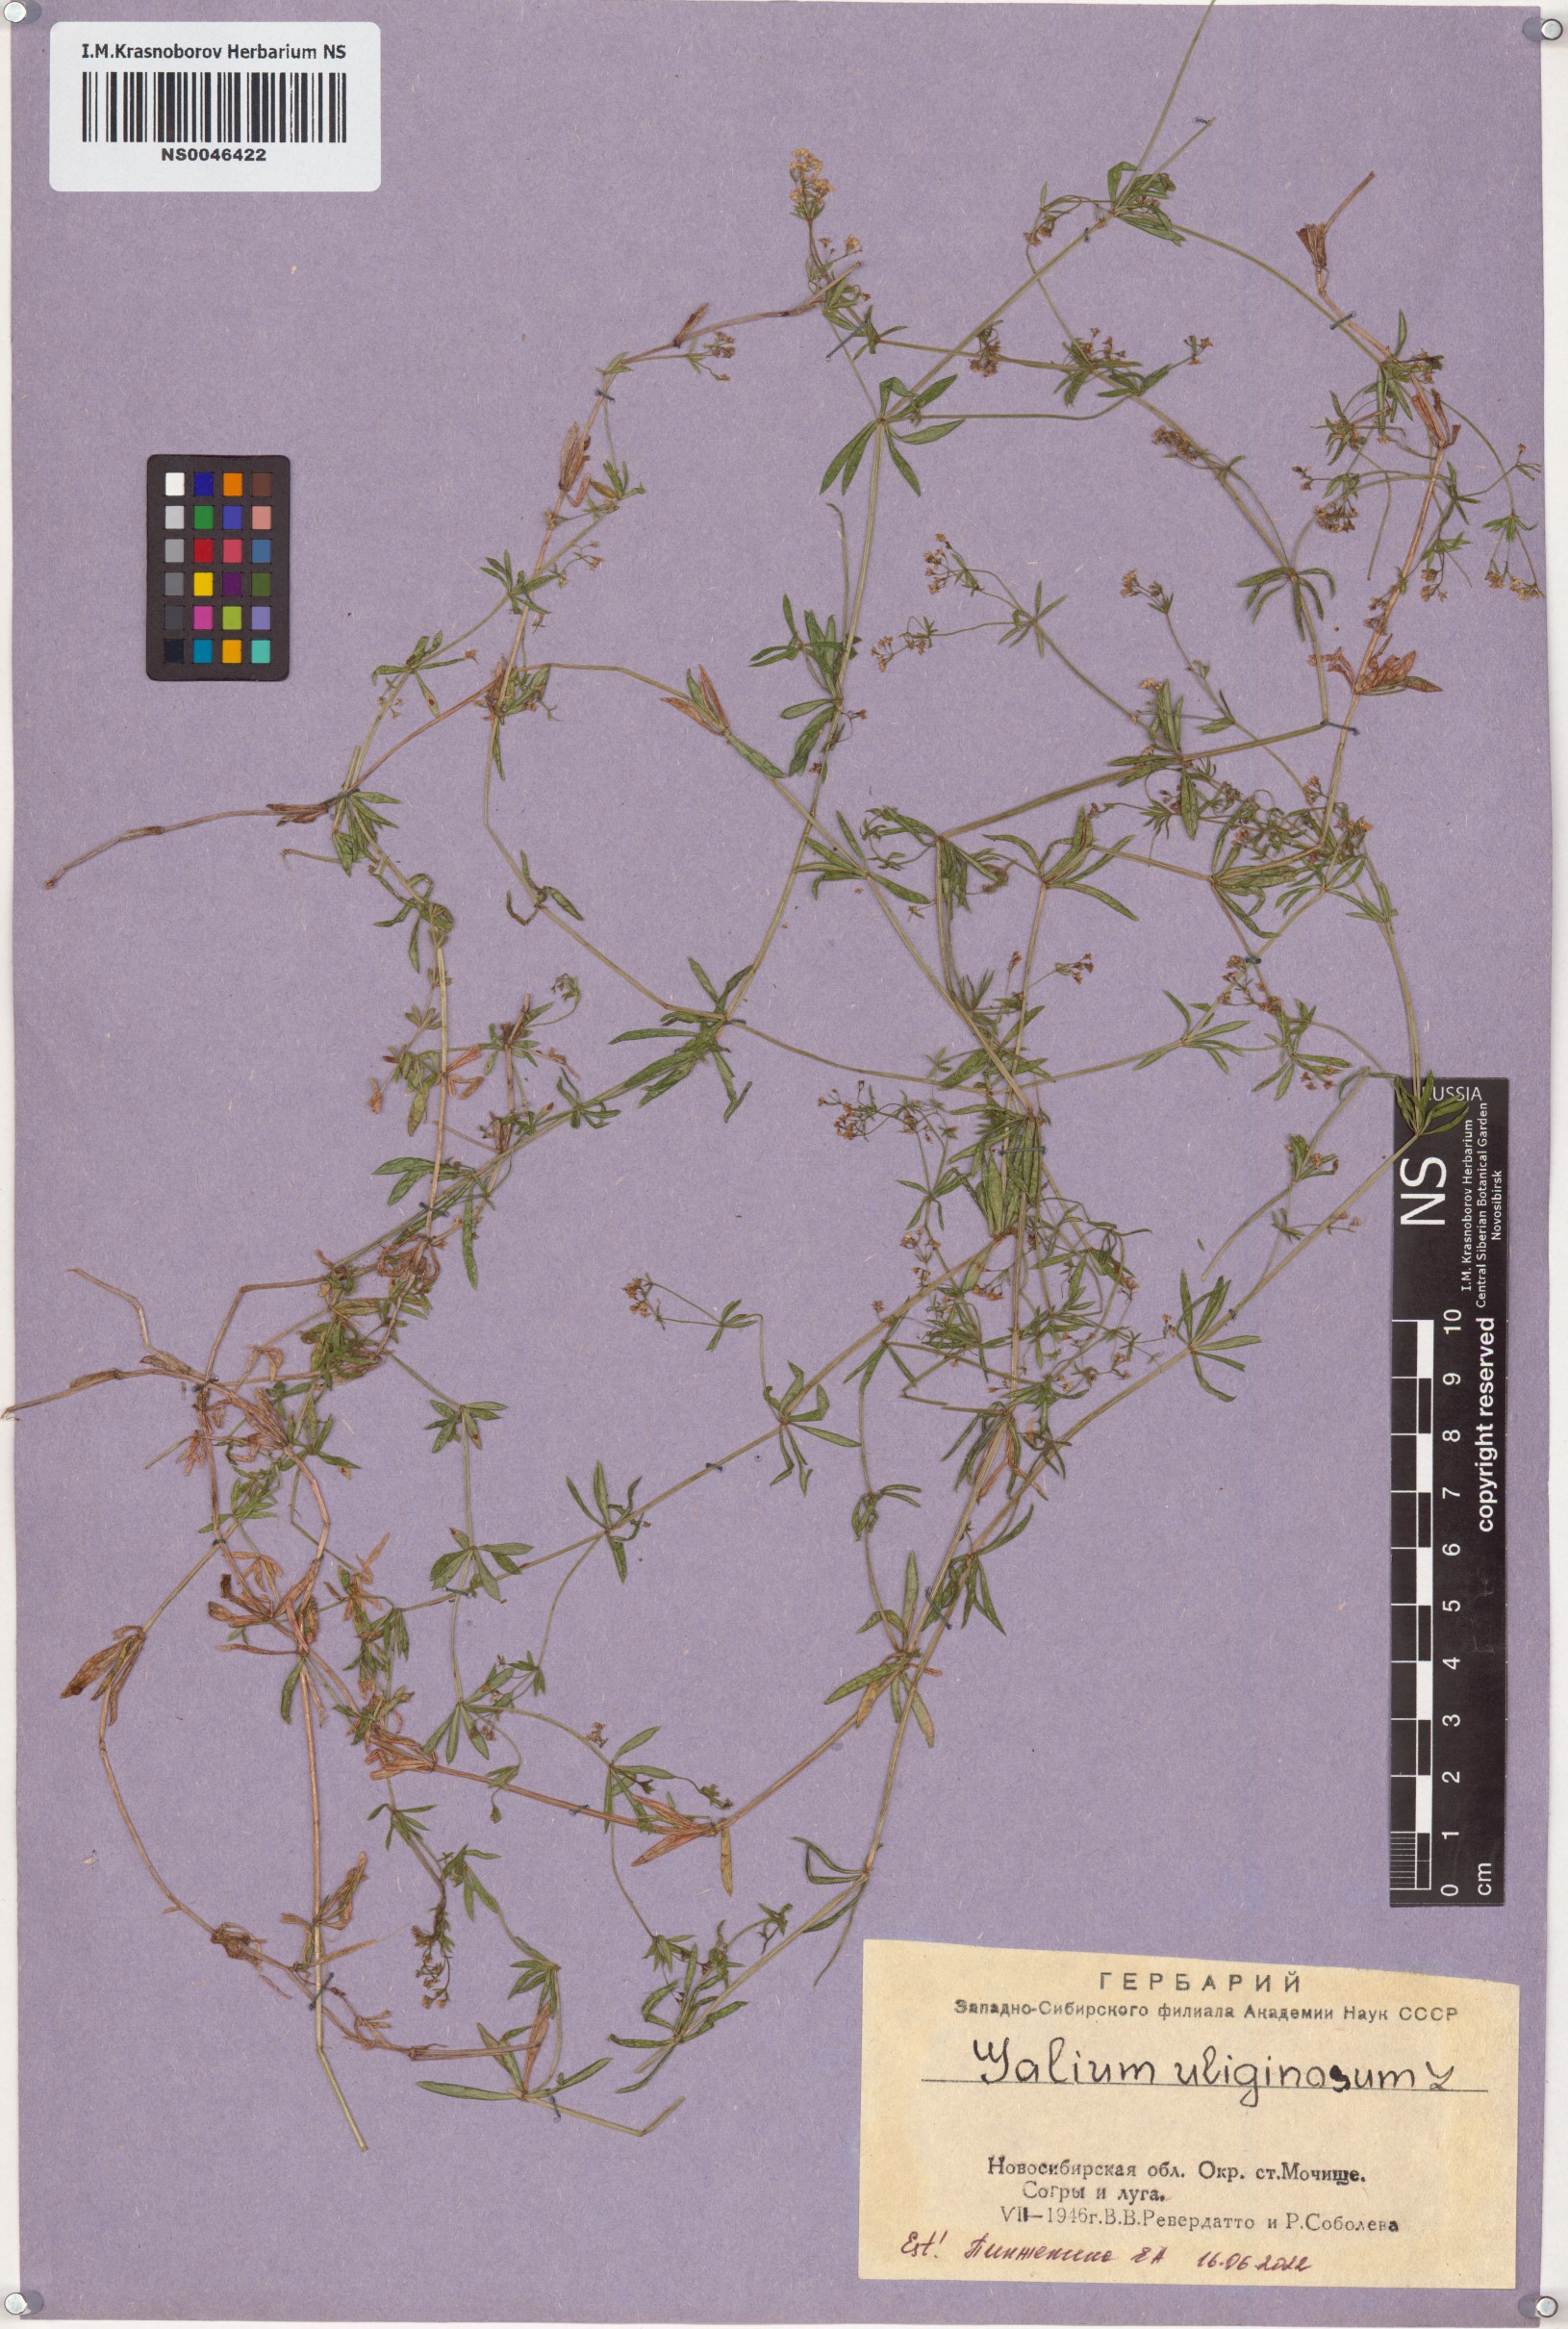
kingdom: Plantae
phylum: Tracheophyta
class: Magnoliopsida
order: Gentianales
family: Rubiaceae
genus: Galium
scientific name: Galium uliginosum
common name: Fen bedstraw
